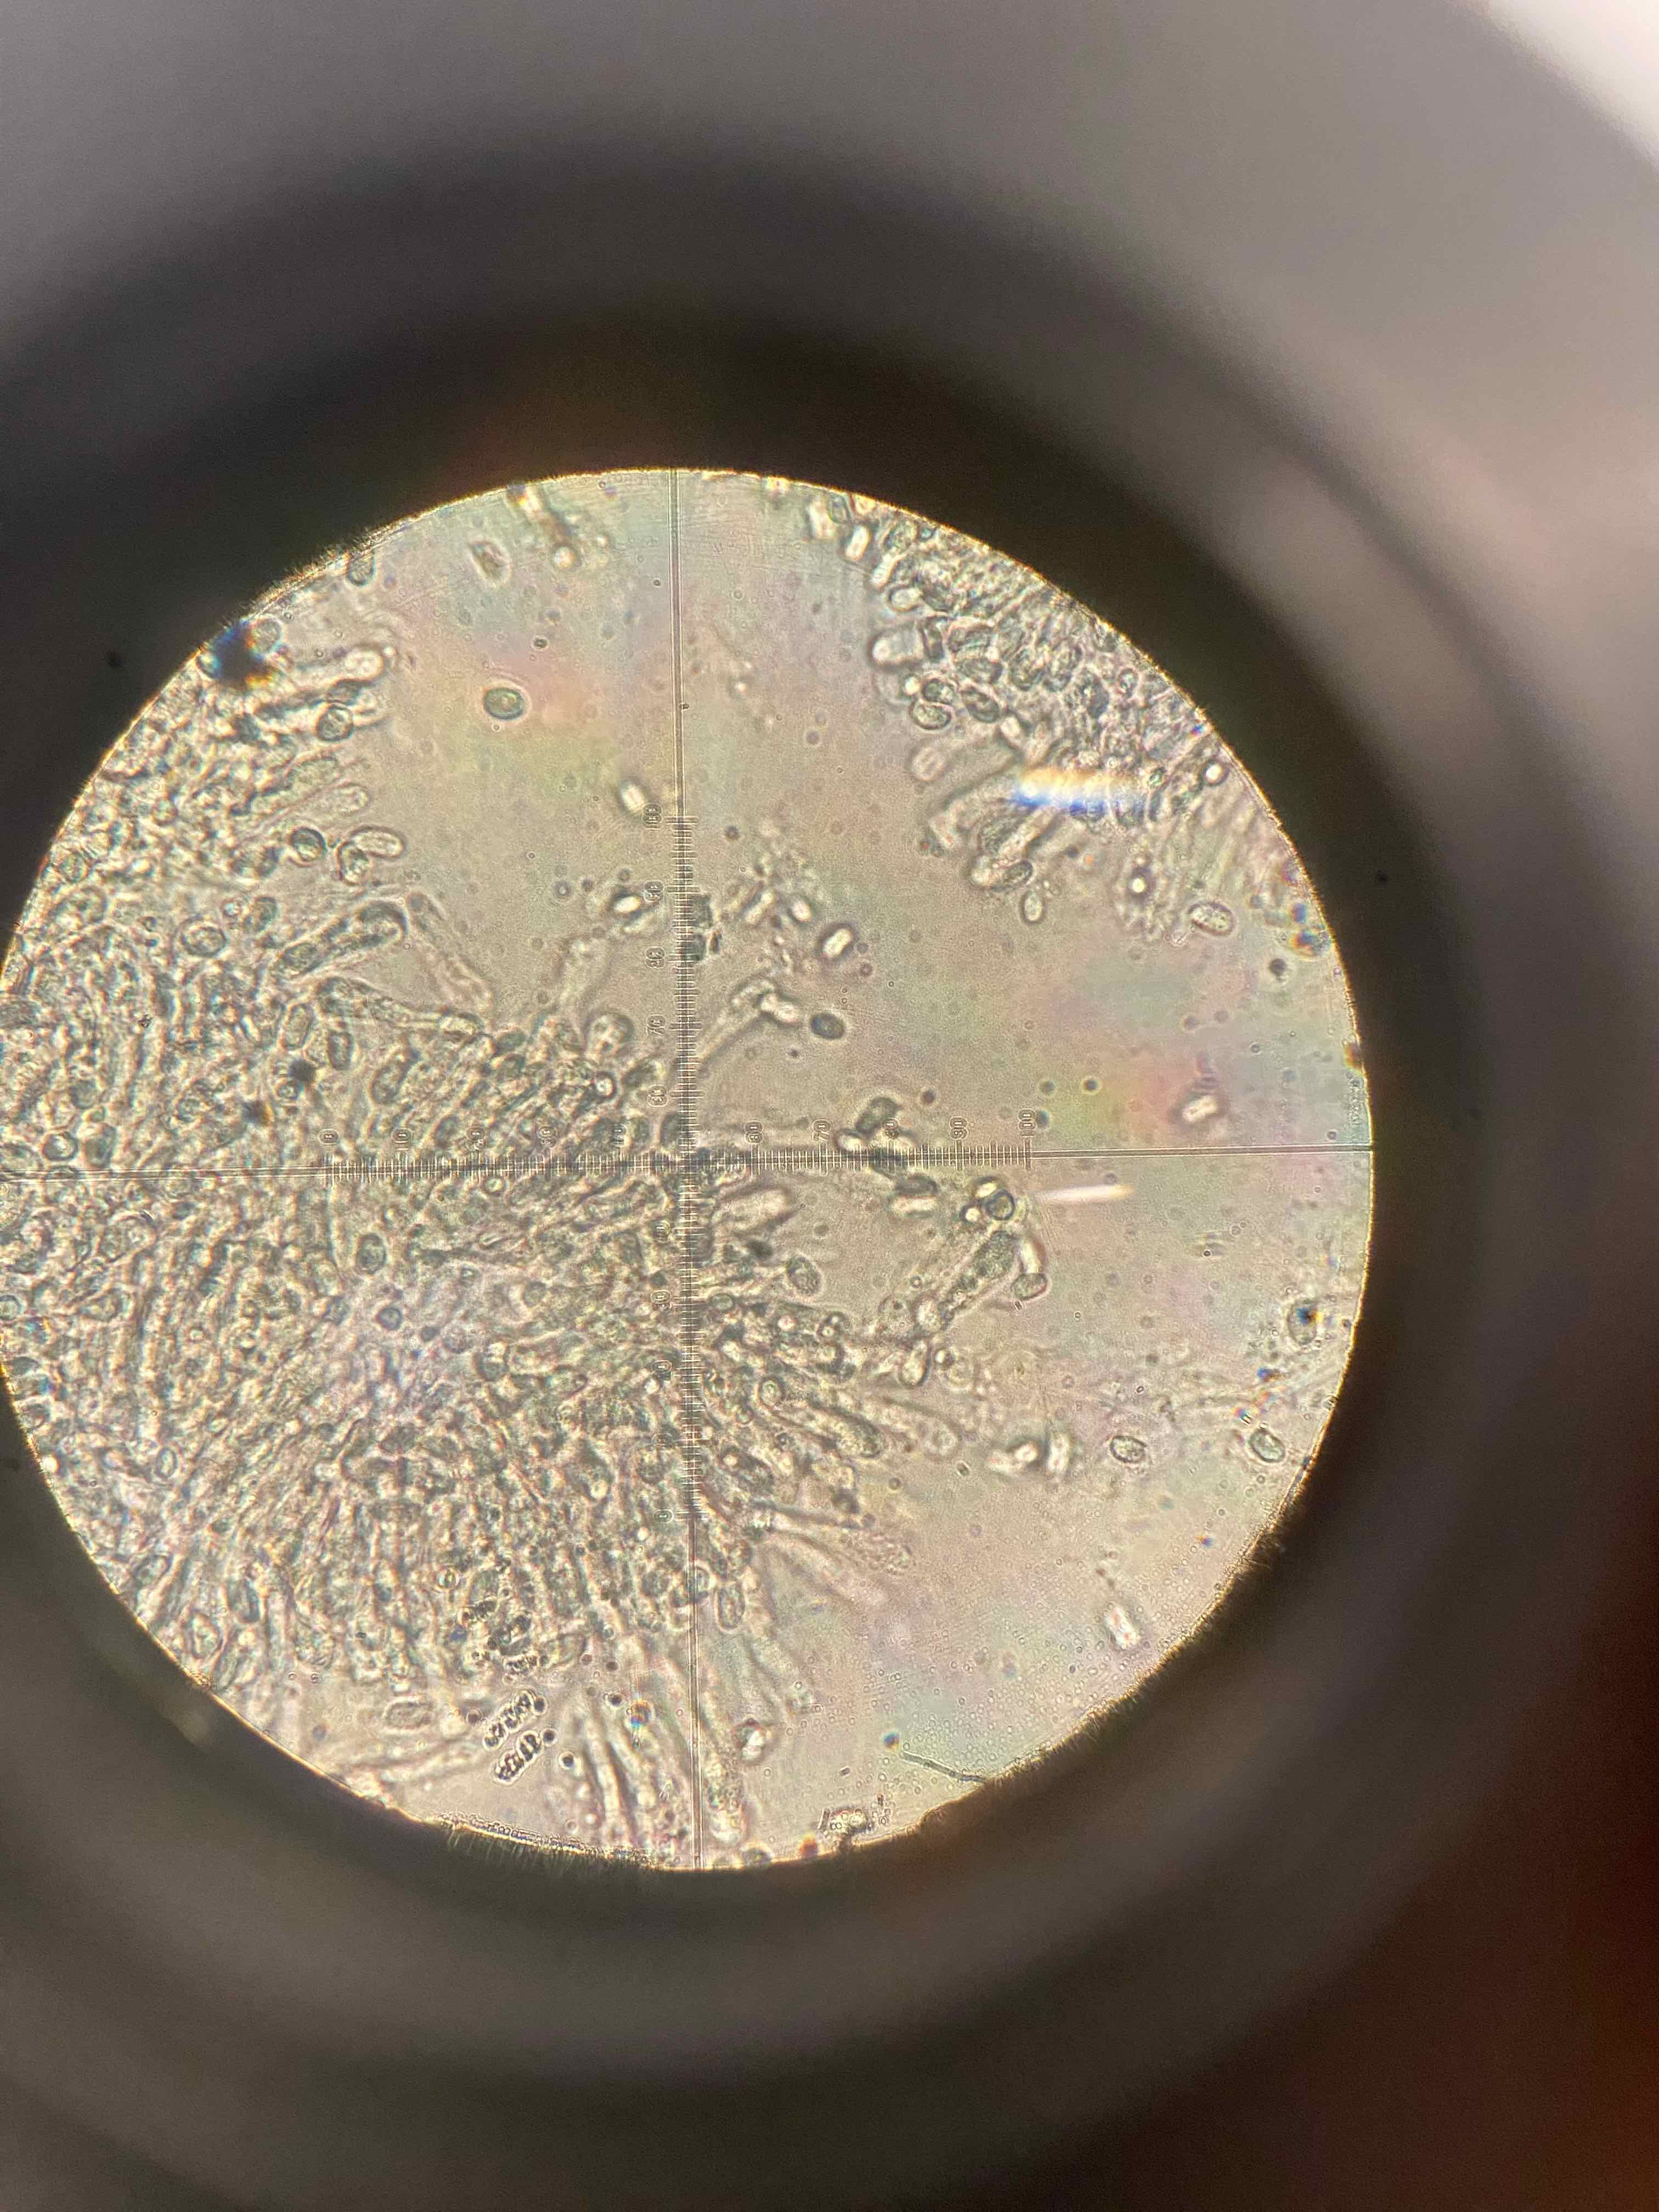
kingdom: Fungi
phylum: Basidiomycota
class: Agaricomycetes
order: Agaricales
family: Hygrophoraceae
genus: Hygrocybe
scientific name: Hygrocybe
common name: vokshat
